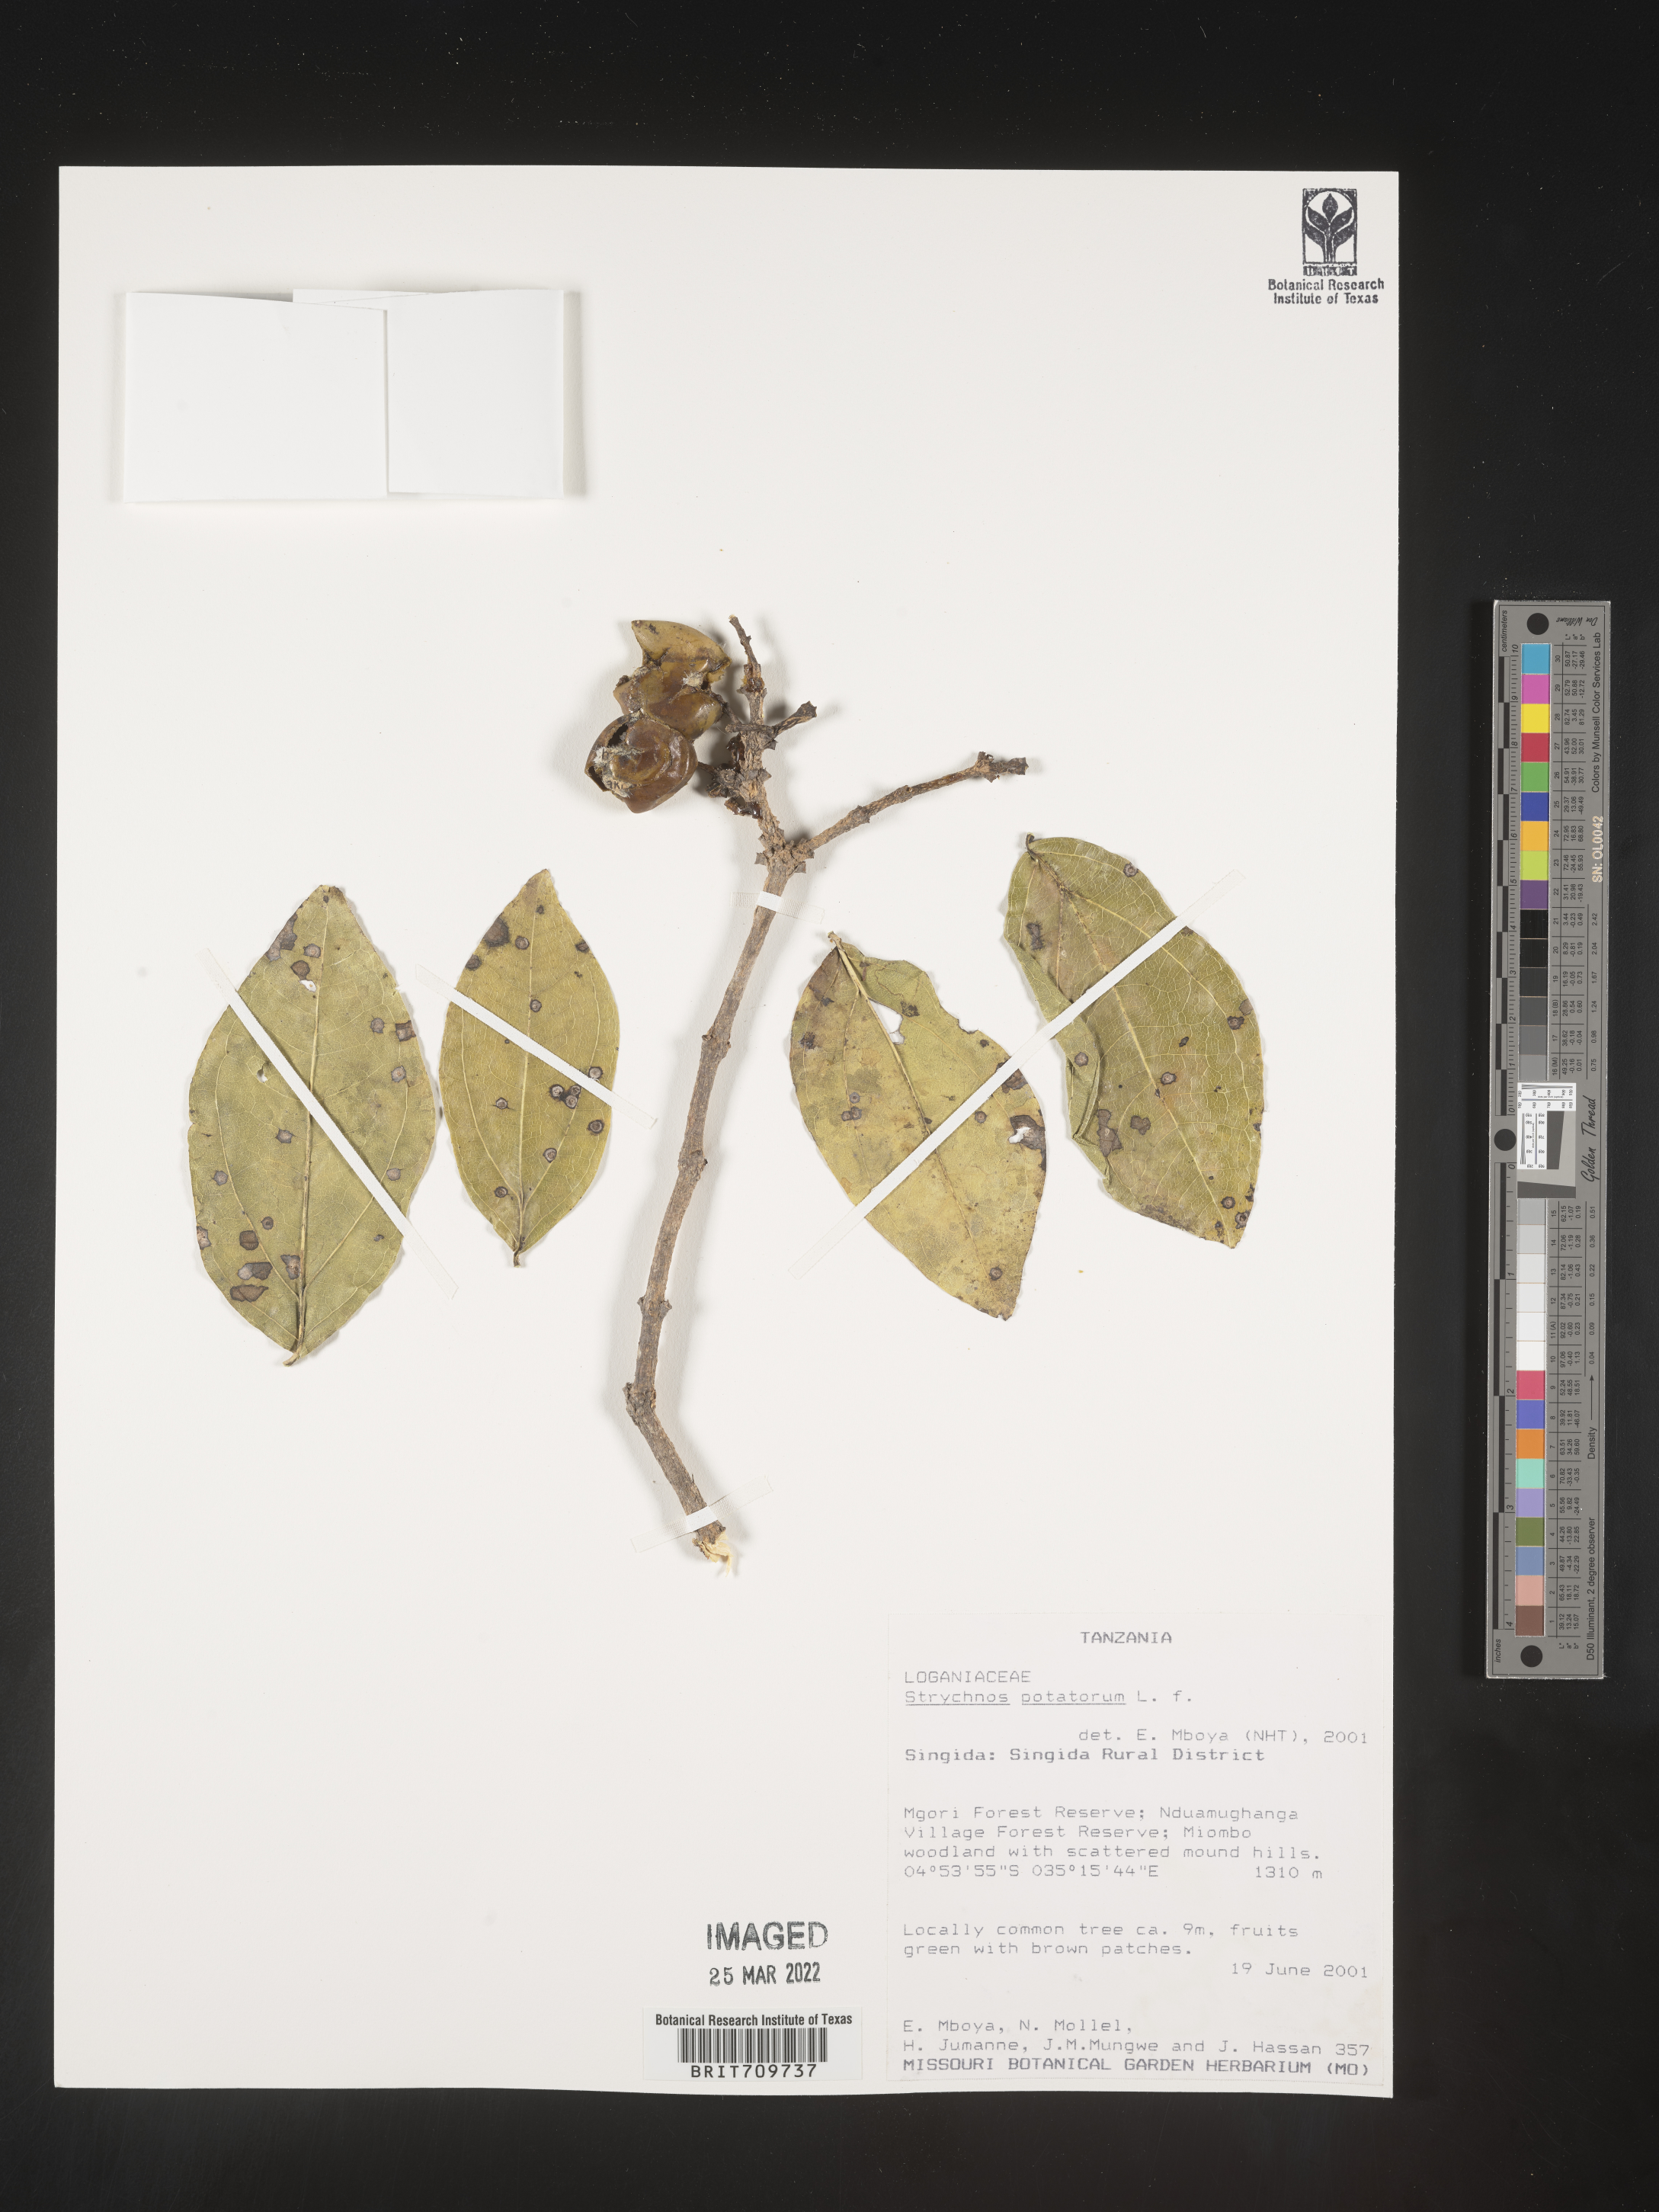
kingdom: Plantae
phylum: Tracheophyta
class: Magnoliopsida
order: Gentianales
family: Loganiaceae
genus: Strychnos
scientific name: Strychnos
